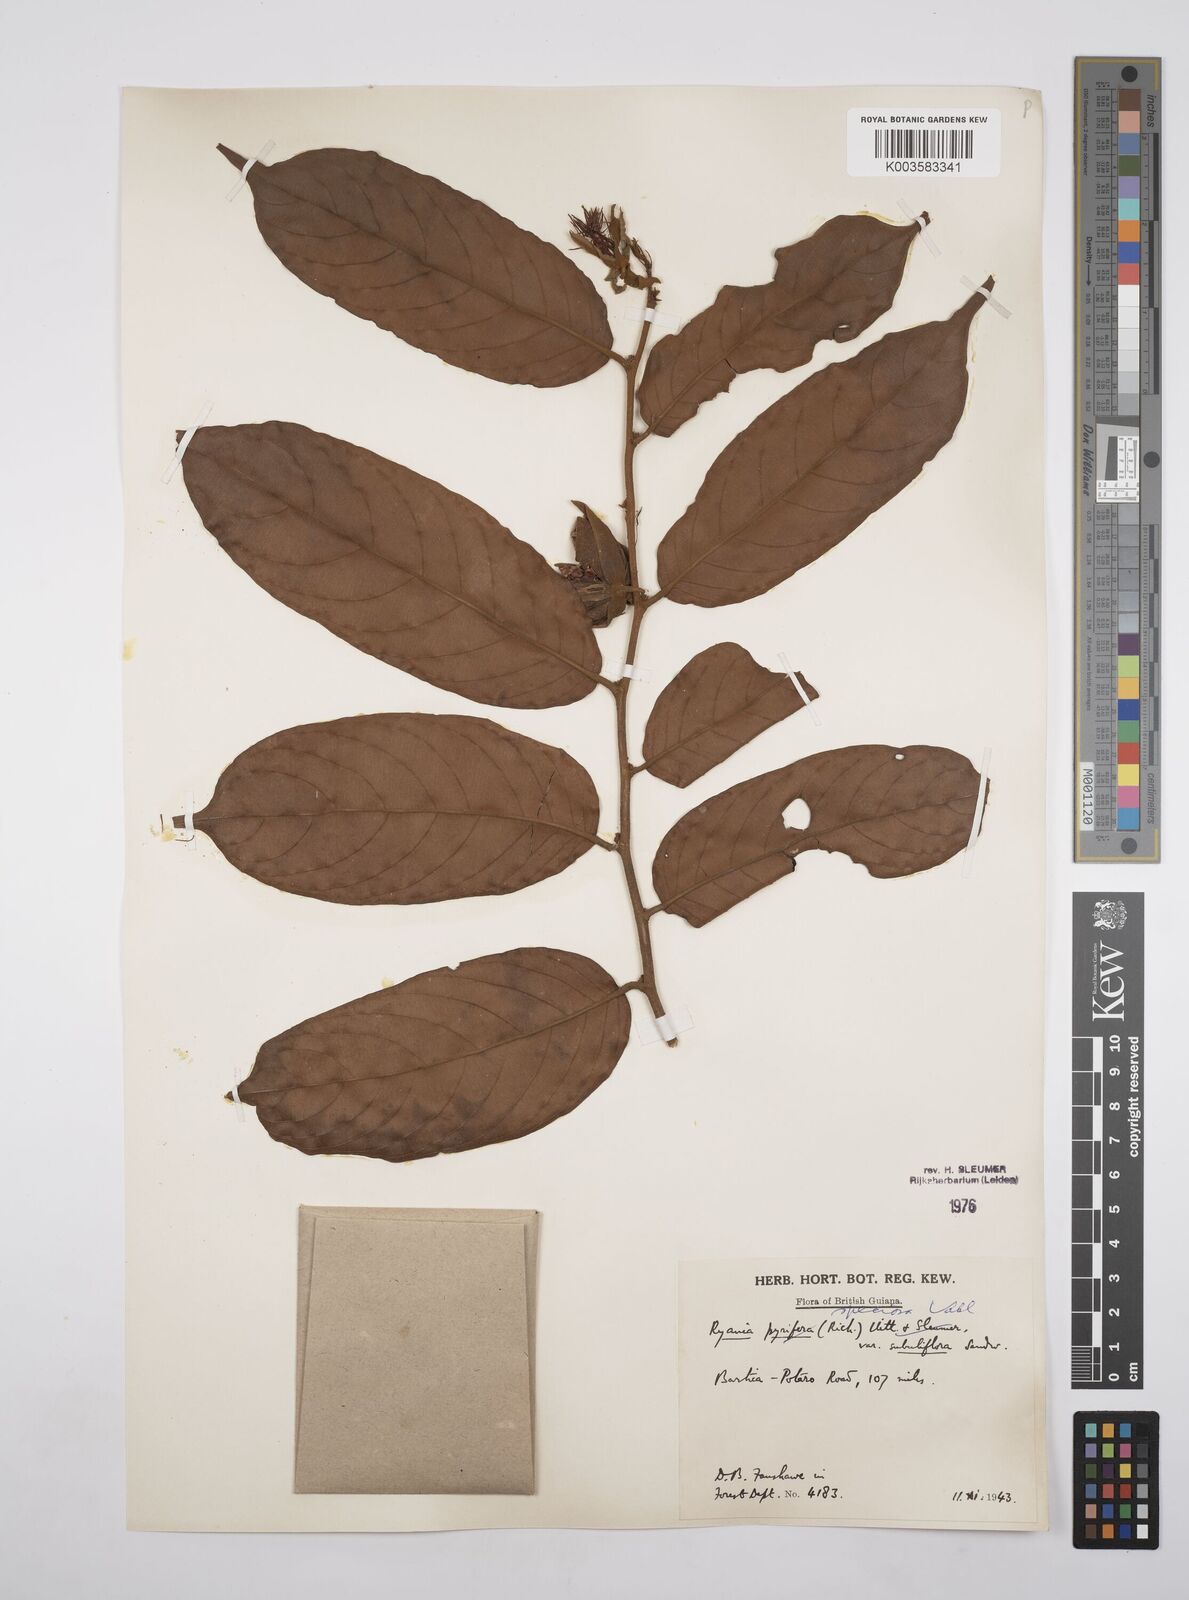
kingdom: Plantae
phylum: Tracheophyta
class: Magnoliopsida
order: Malpighiales
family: Salicaceae
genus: Ryania
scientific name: Ryania speciosa
